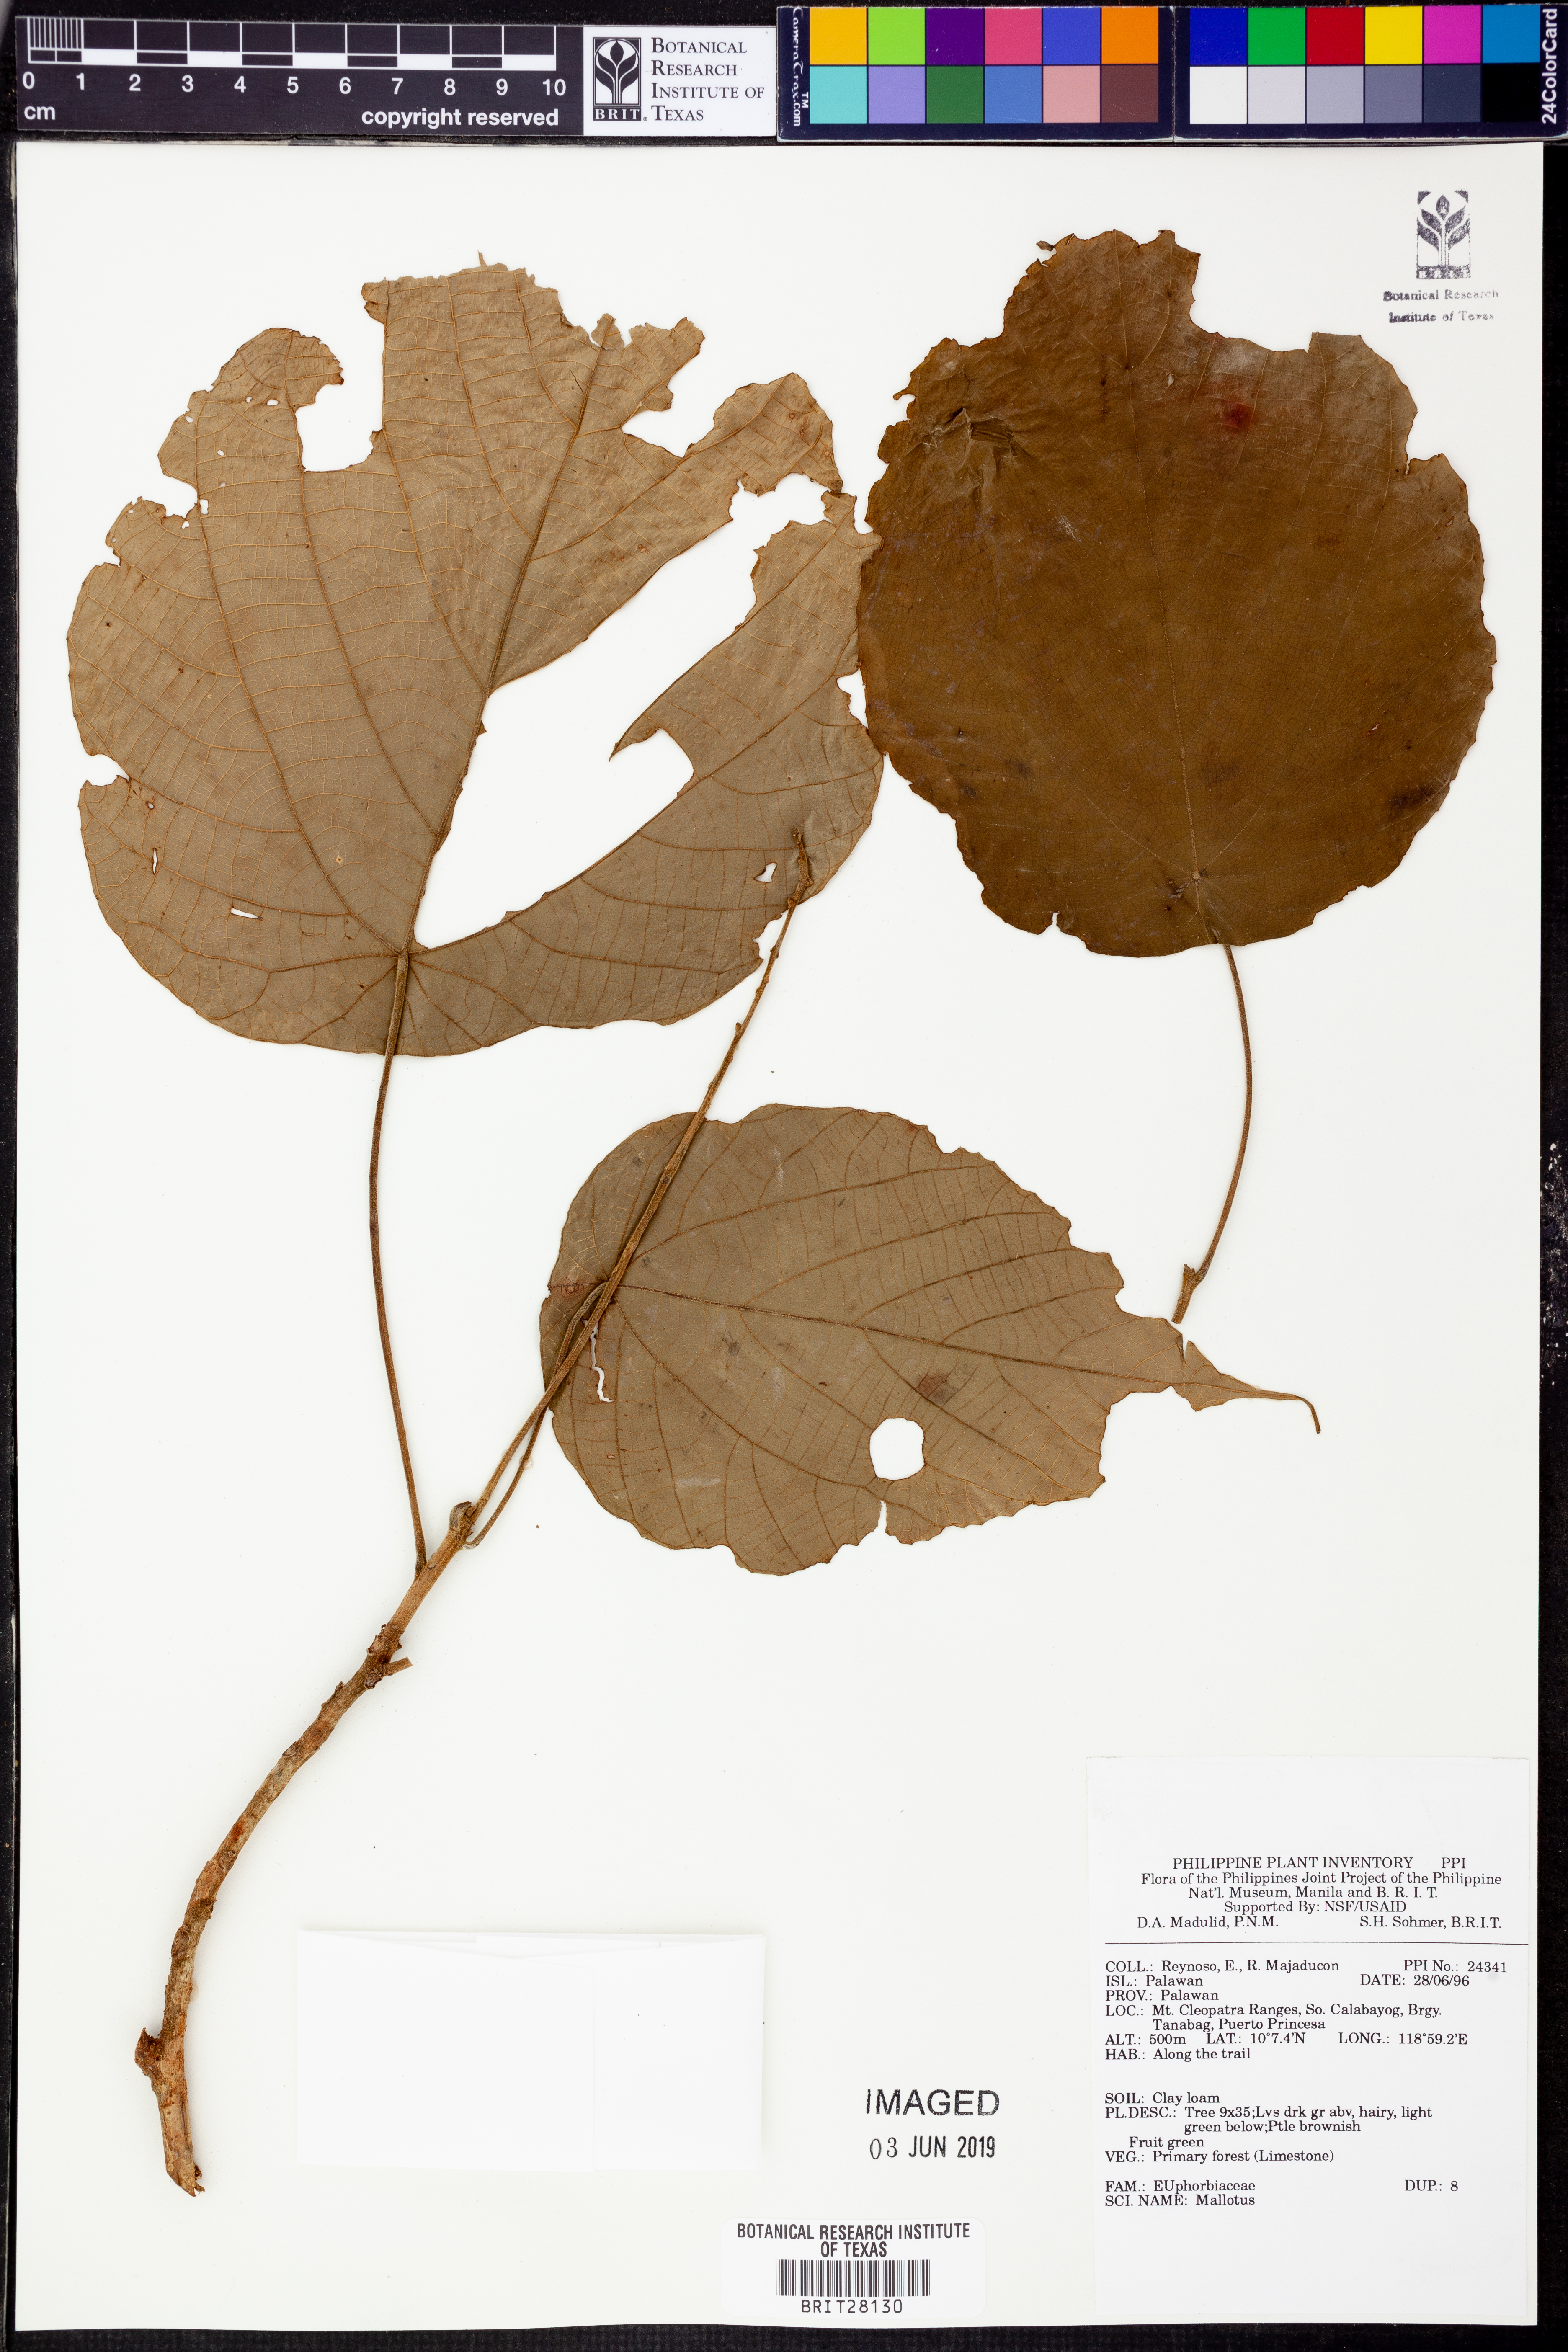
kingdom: Plantae
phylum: Tracheophyta
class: Magnoliopsida
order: Malpighiales
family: Euphorbiaceae
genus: Mallotus
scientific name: Mallotus
